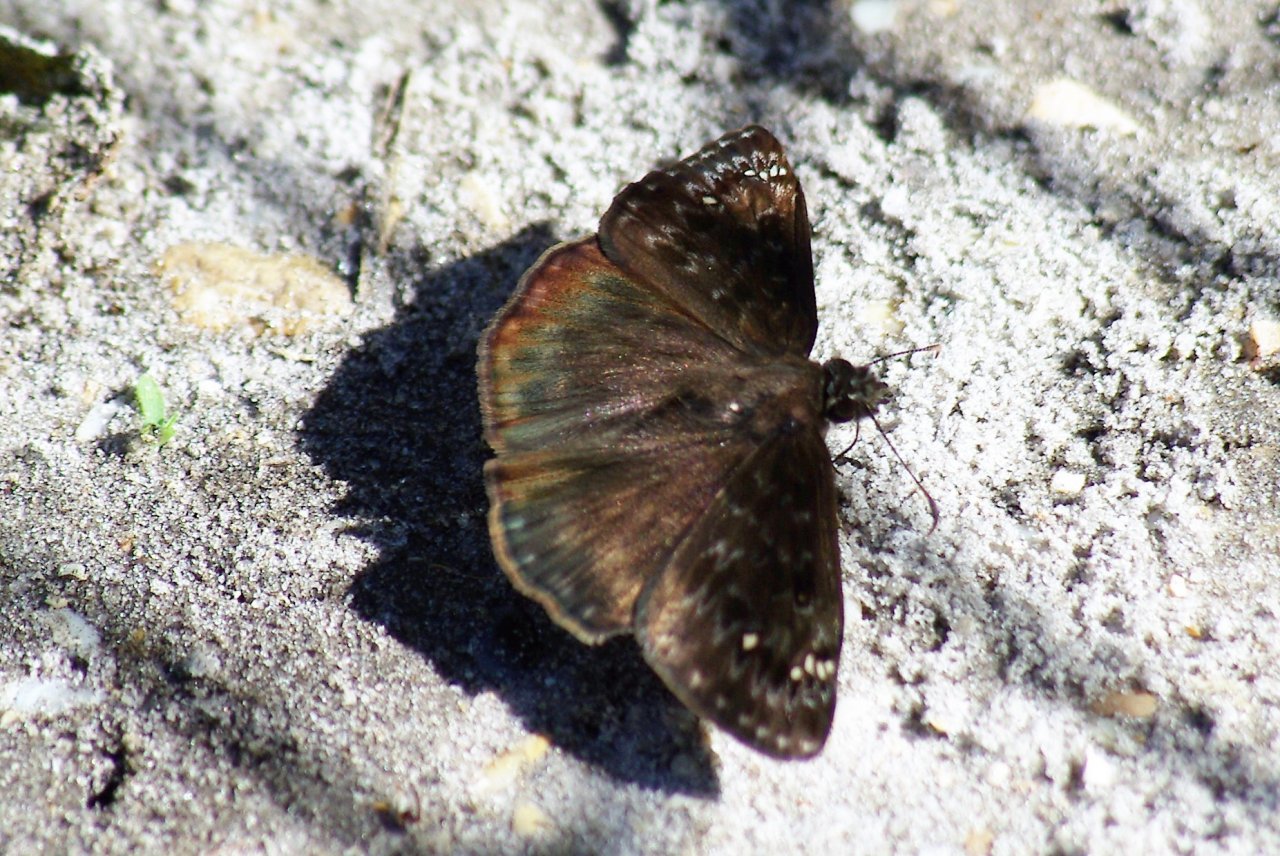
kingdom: Animalia
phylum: Arthropoda
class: Insecta
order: Lepidoptera
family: Hesperiidae
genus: Gesta
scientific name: Gesta
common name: Horace's Duskywing
